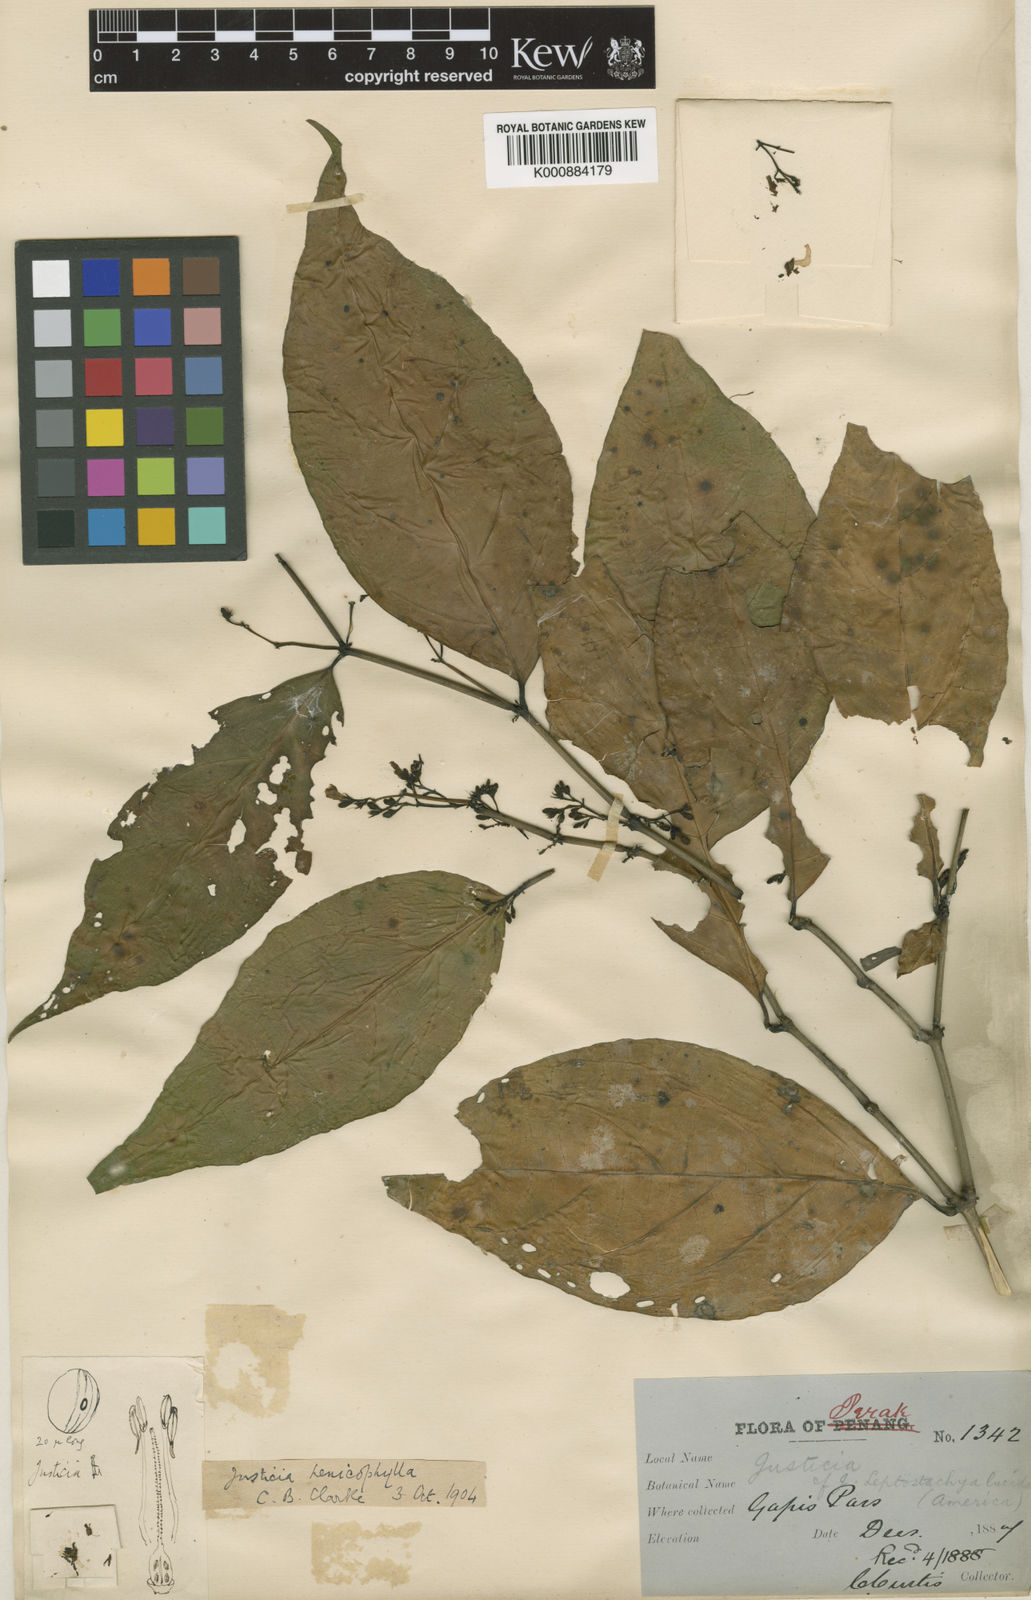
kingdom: Plantae
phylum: Tracheophyta
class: Magnoliopsida
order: Lamiales
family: Acanthaceae
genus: Justicia
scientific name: Justicia alternifolia
